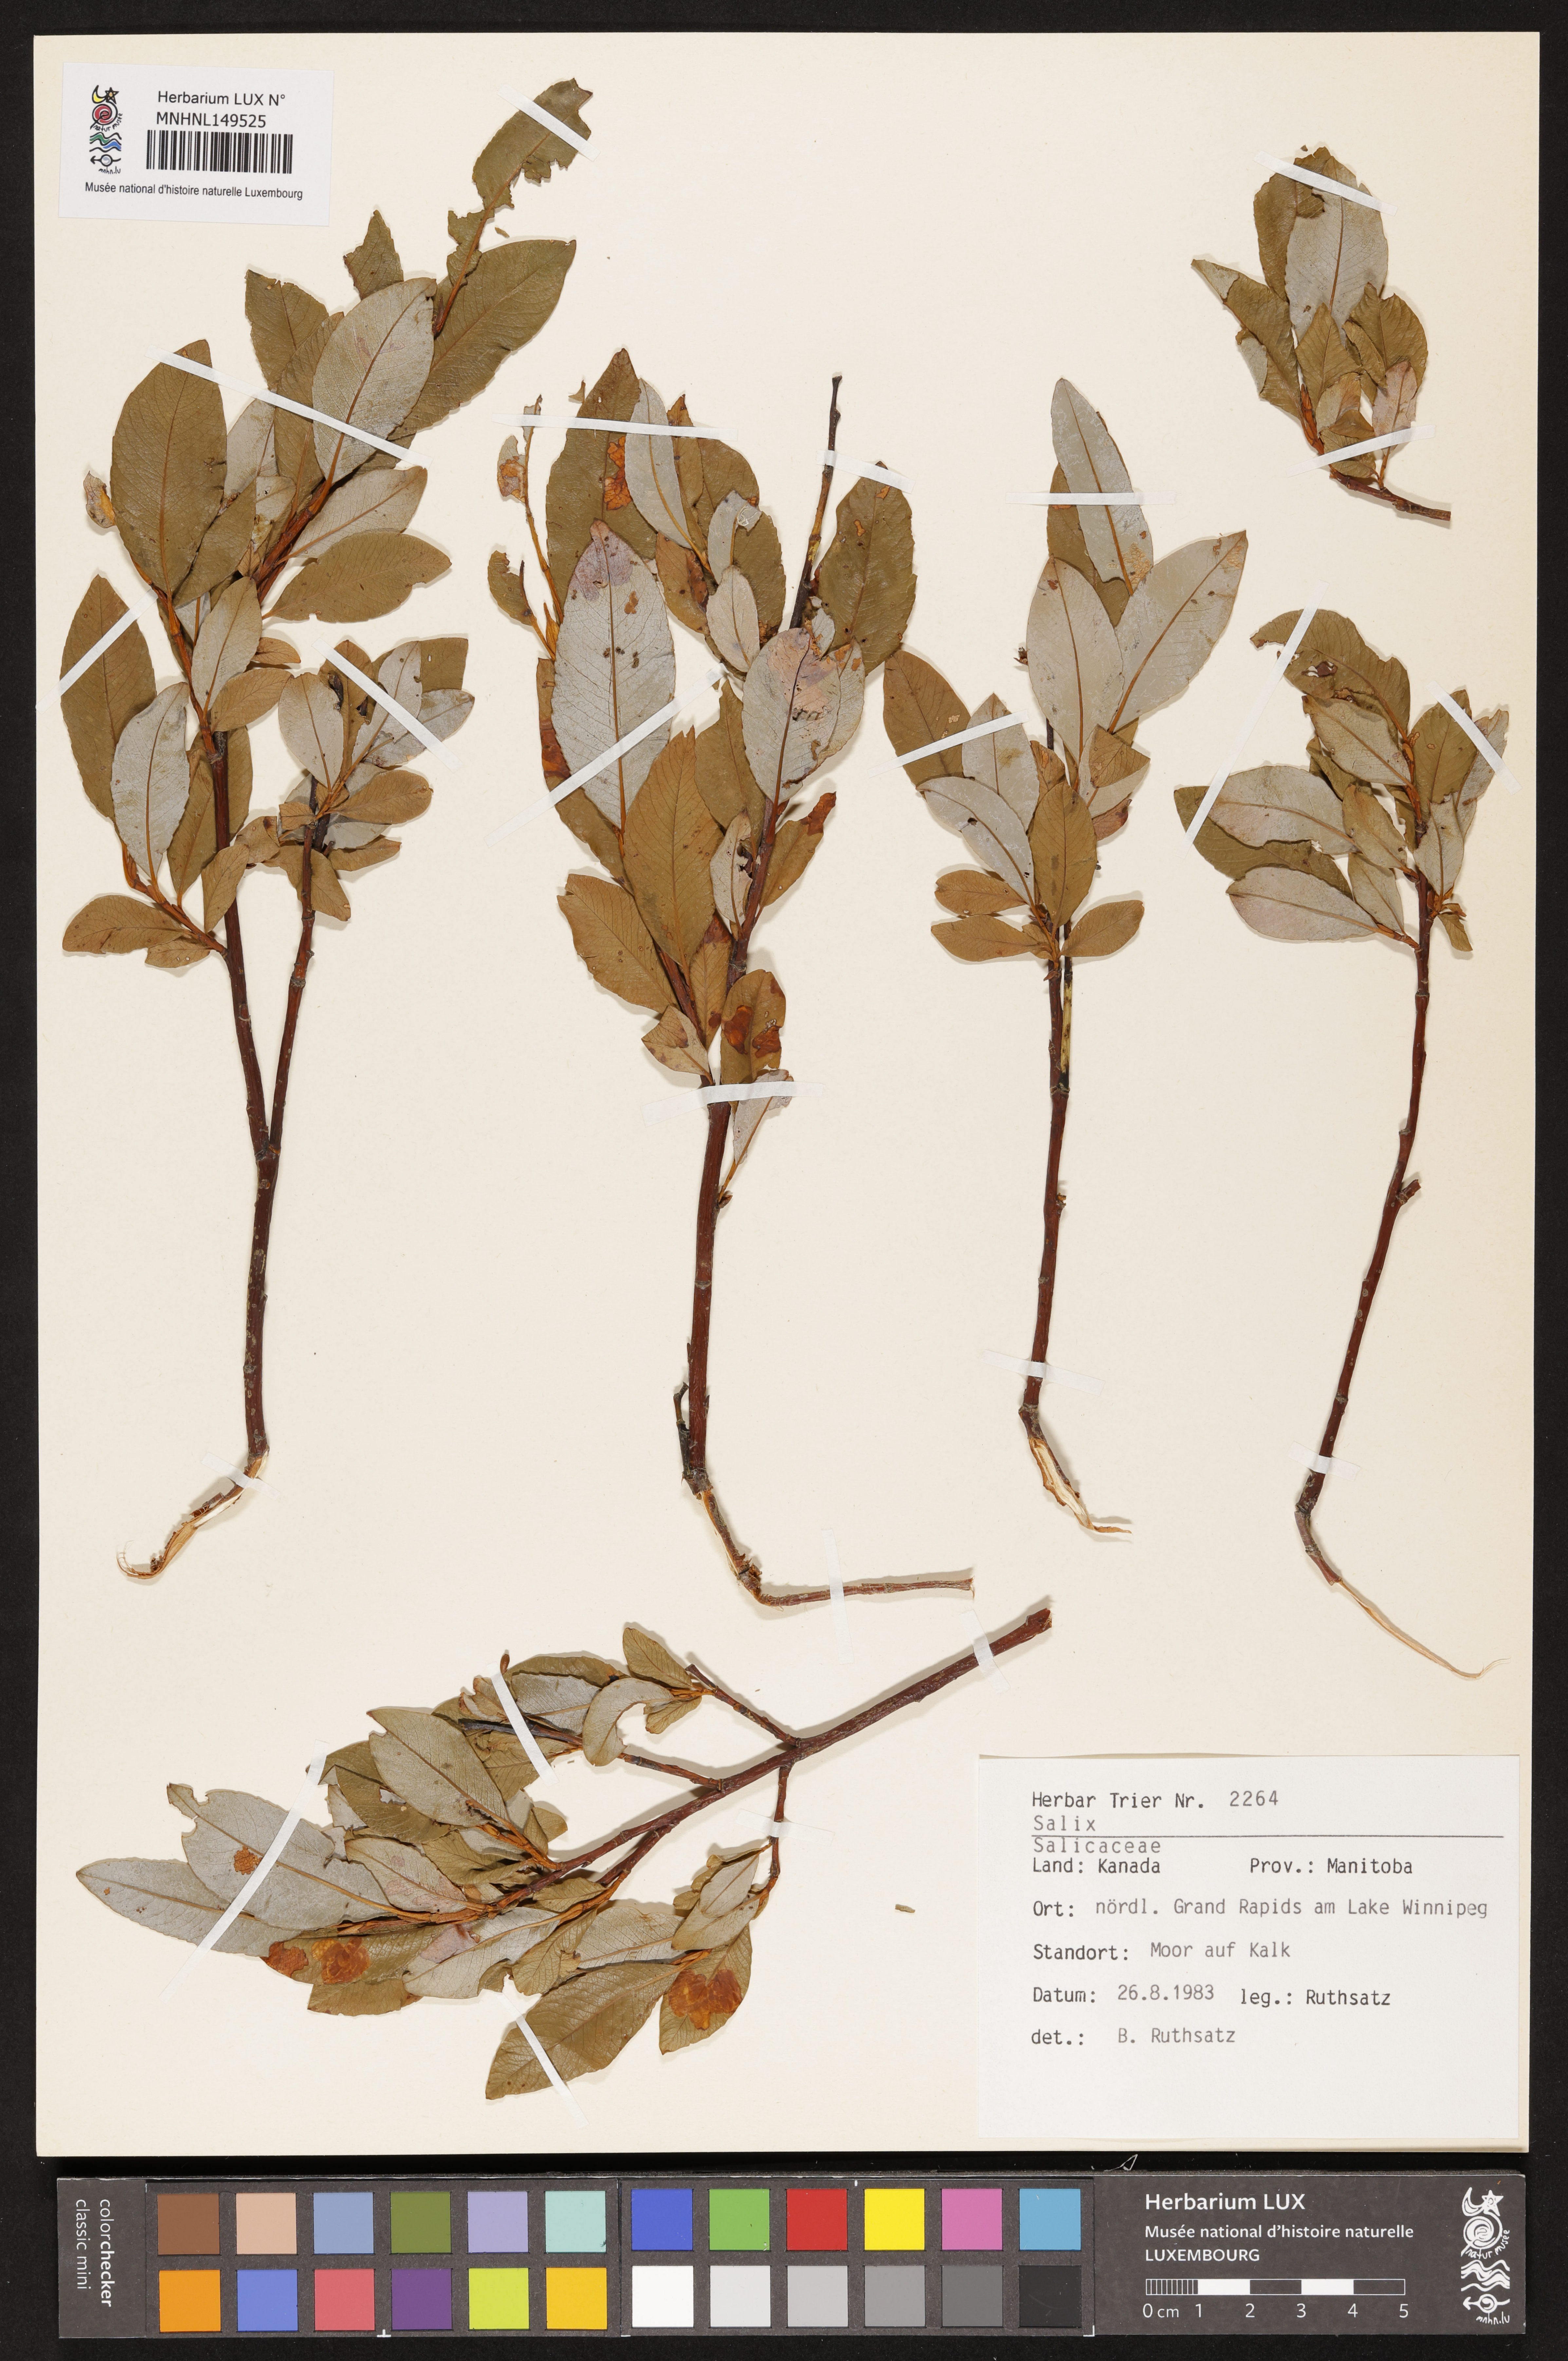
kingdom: Plantae
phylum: Tracheophyta
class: Magnoliopsida
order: Malpighiales
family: Salicaceae
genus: Salix
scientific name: Salix
